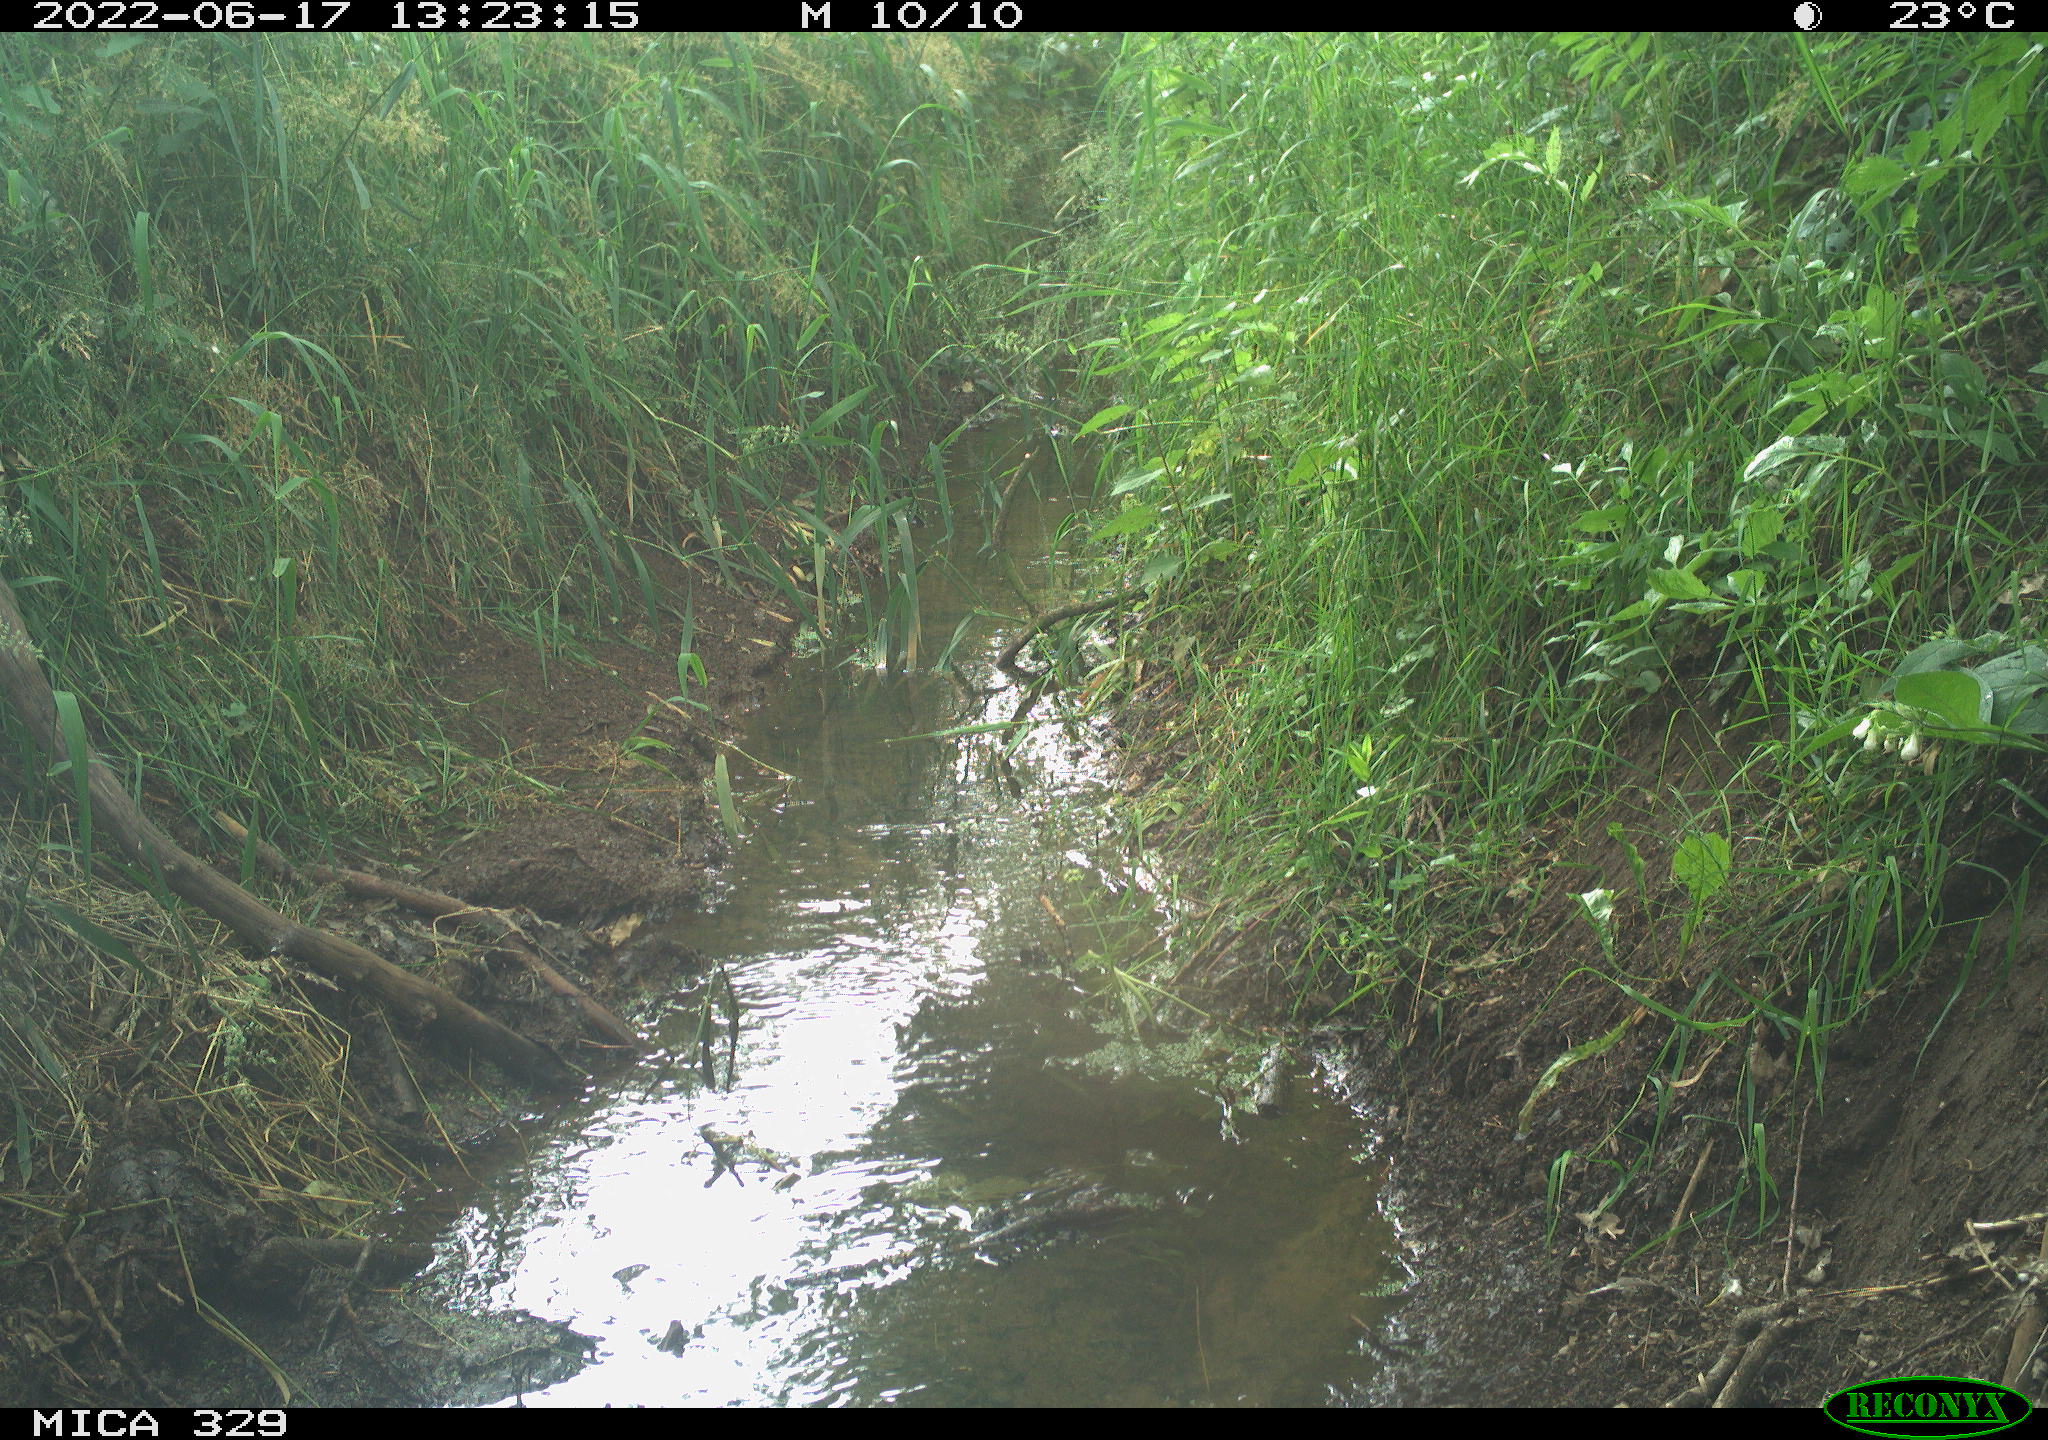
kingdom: Animalia
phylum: Chordata
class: Aves
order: Columbiformes
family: Columbidae
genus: Columba
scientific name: Columba palumbus
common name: Common wood pigeon
